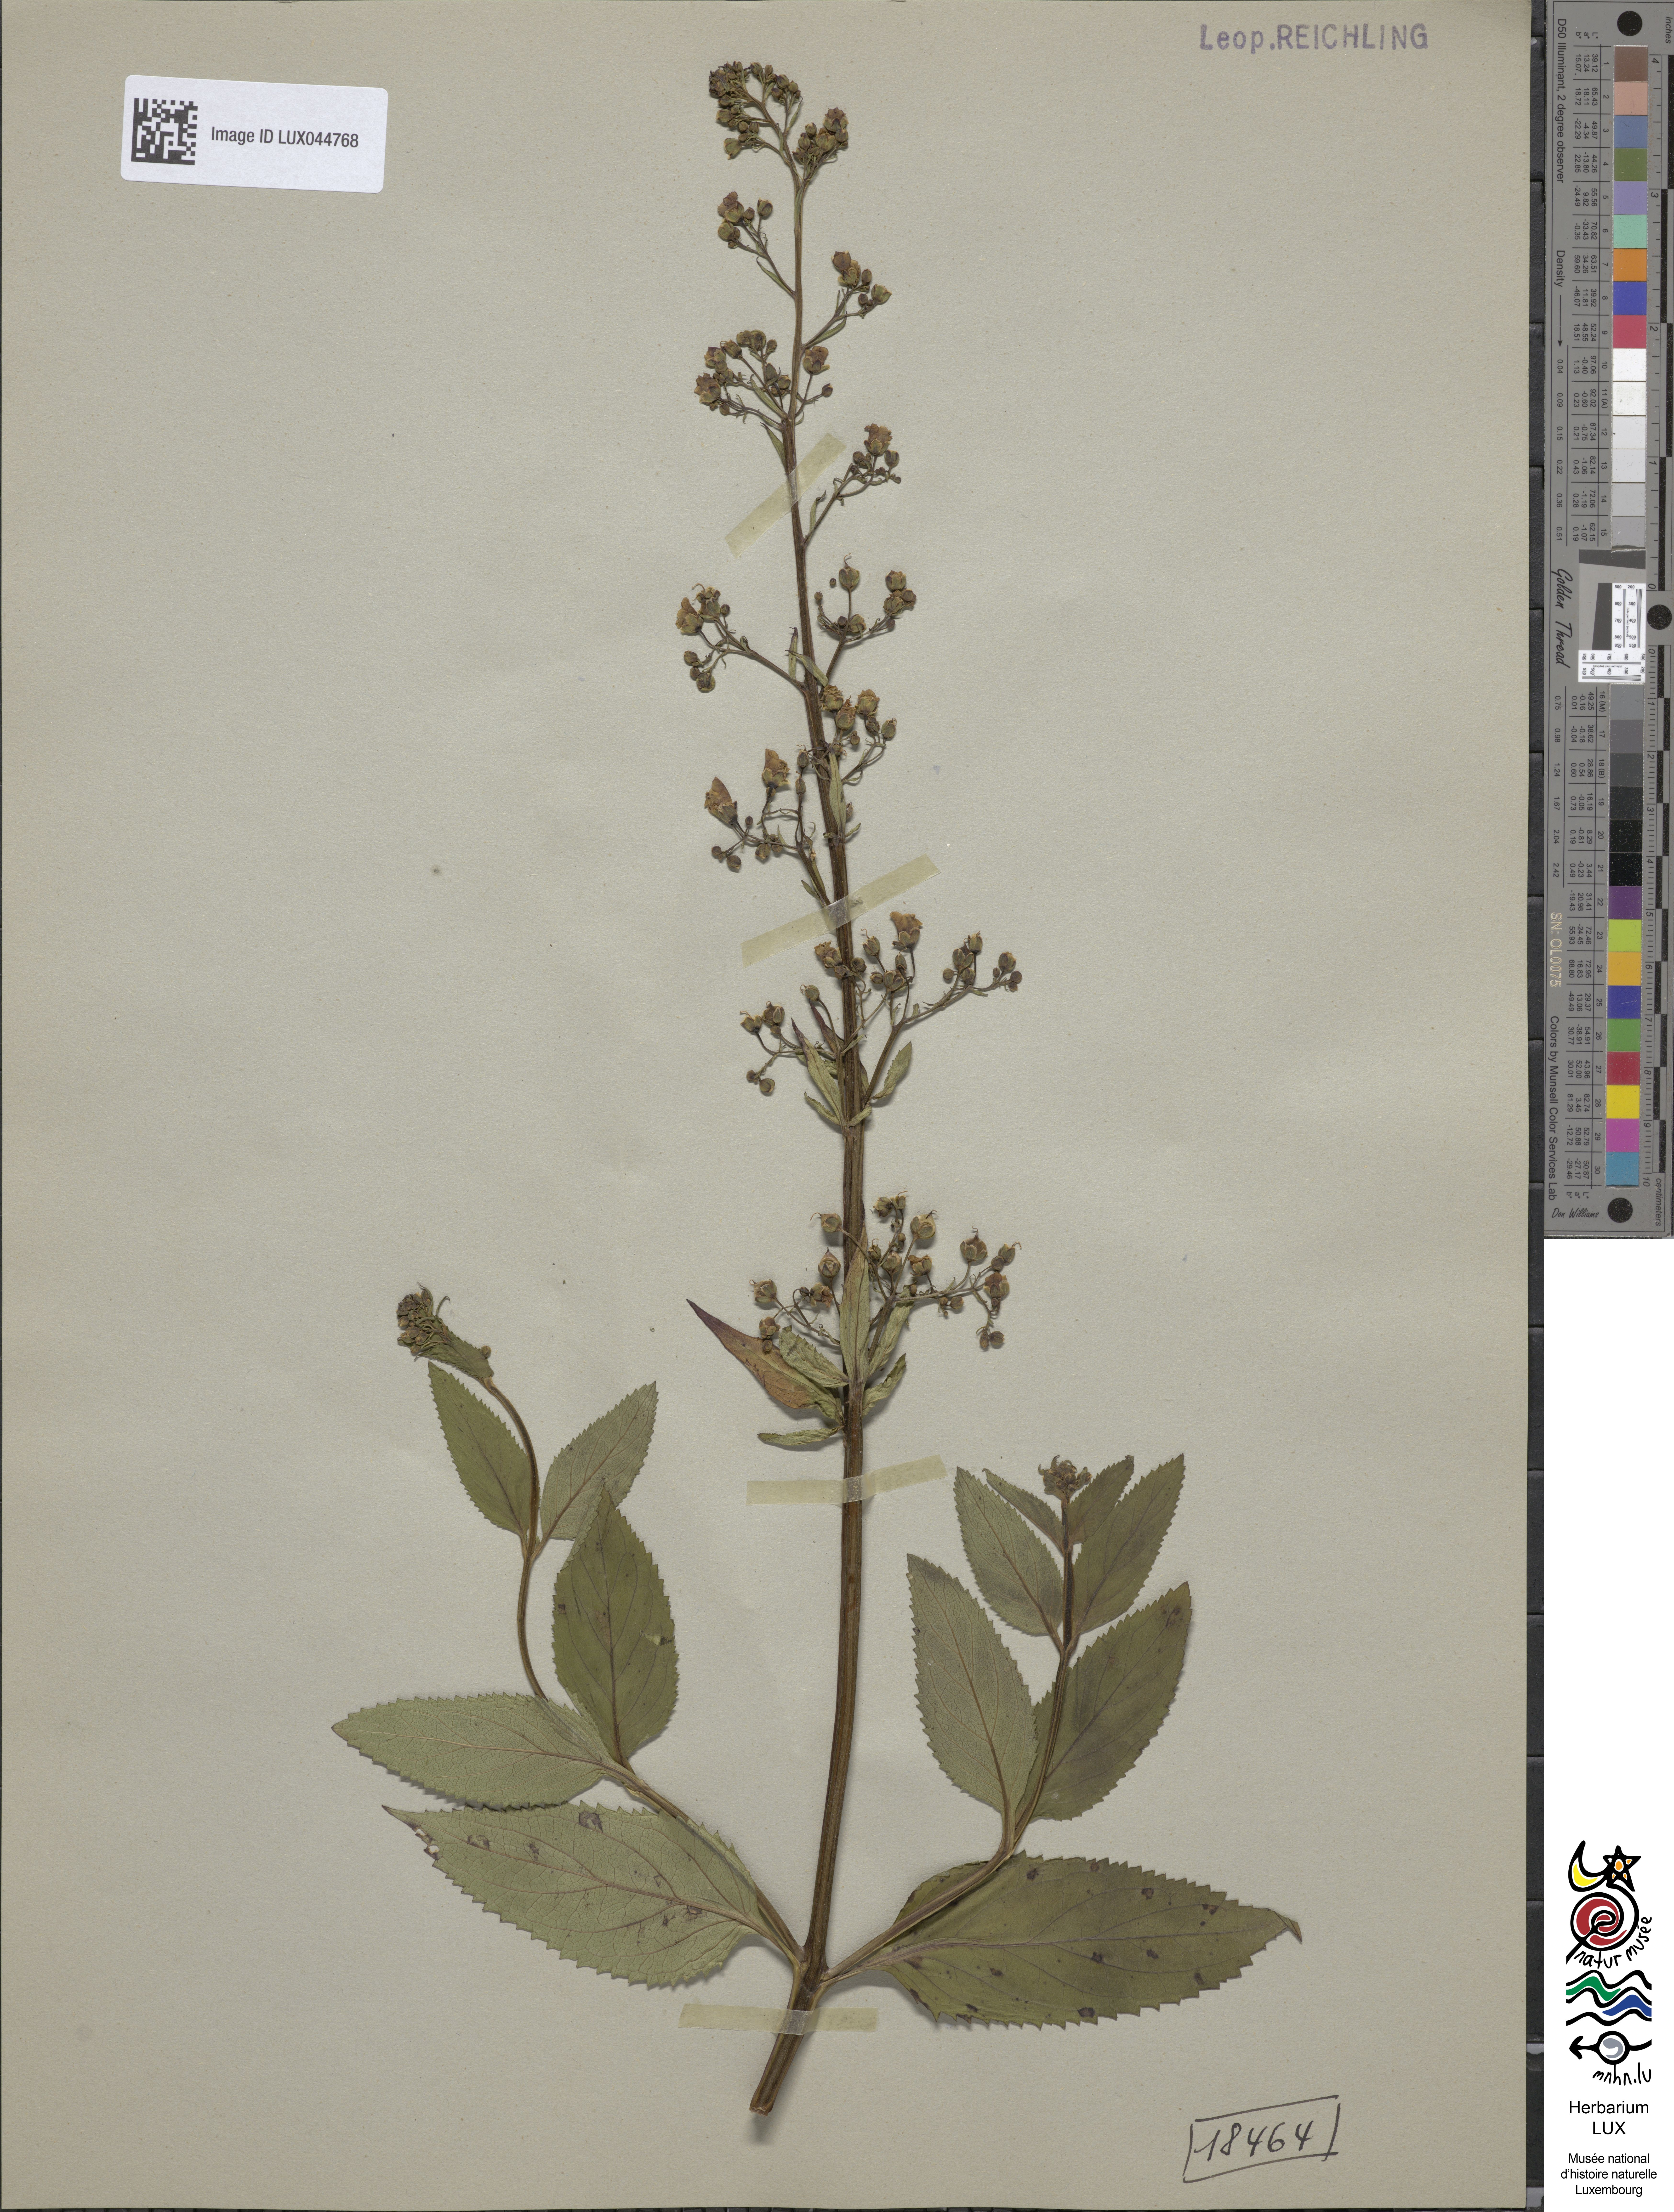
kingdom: Plantae
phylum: Tracheophyta
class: Magnoliopsida
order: Lamiales
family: Scrophulariaceae
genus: Scrophularia
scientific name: Scrophularia umbrosa
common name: Green figwort
